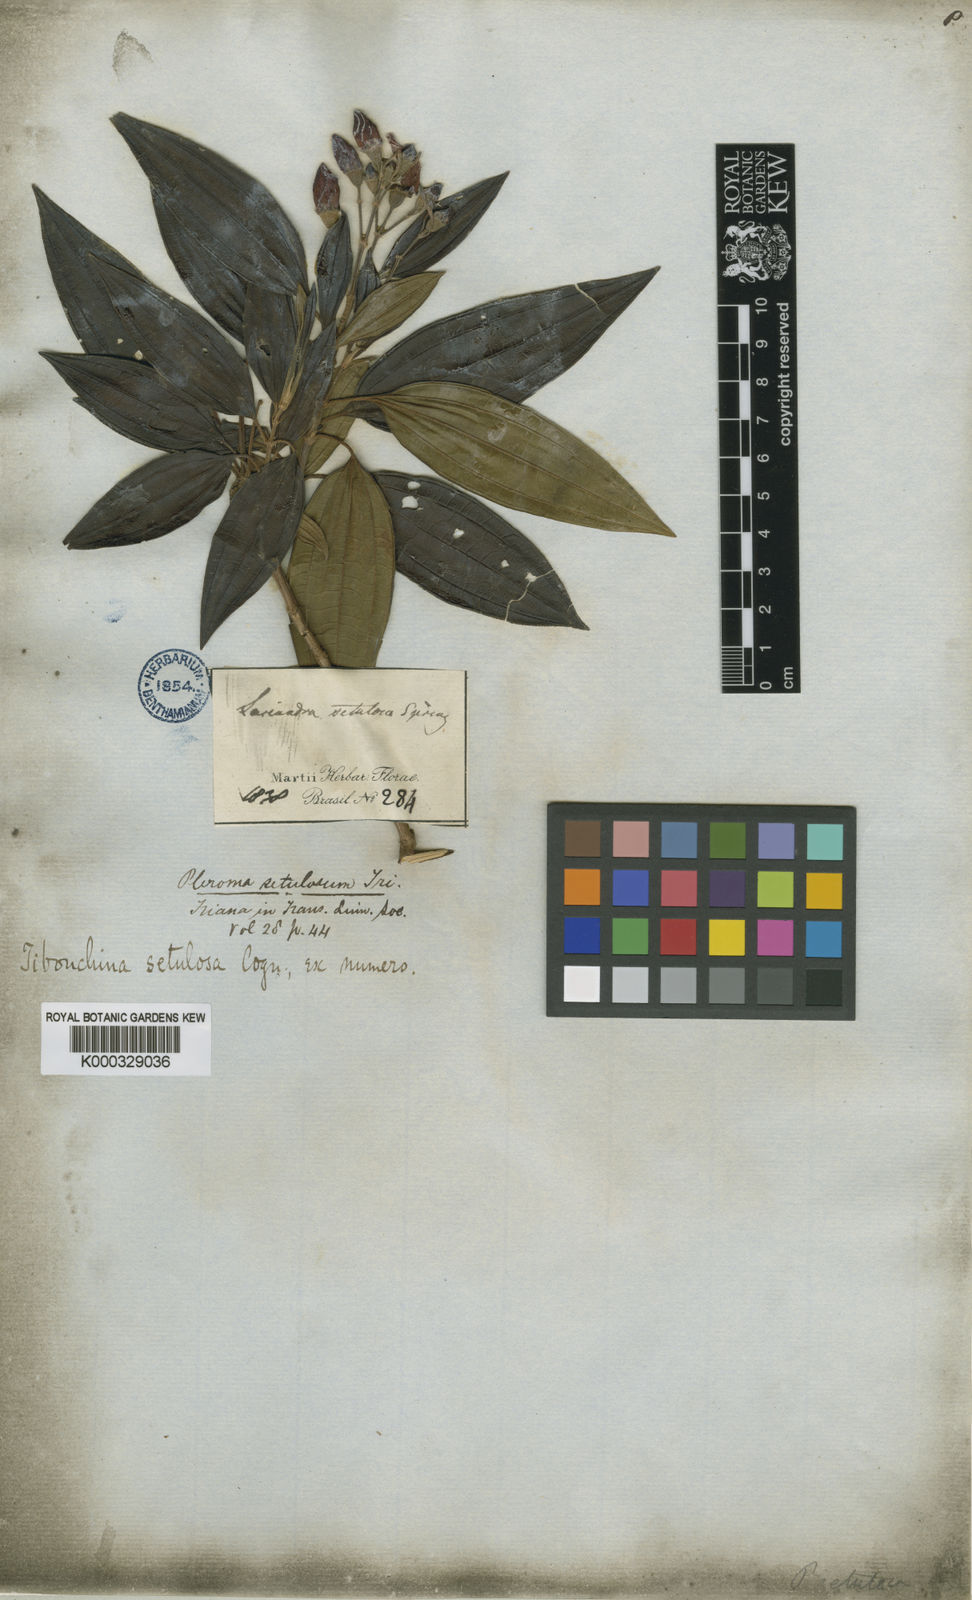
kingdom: Plantae
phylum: Tracheophyta
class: Magnoliopsida
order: Myrtales
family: Melastomataceae
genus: Pleroma
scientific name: Pleroma candolleanum
